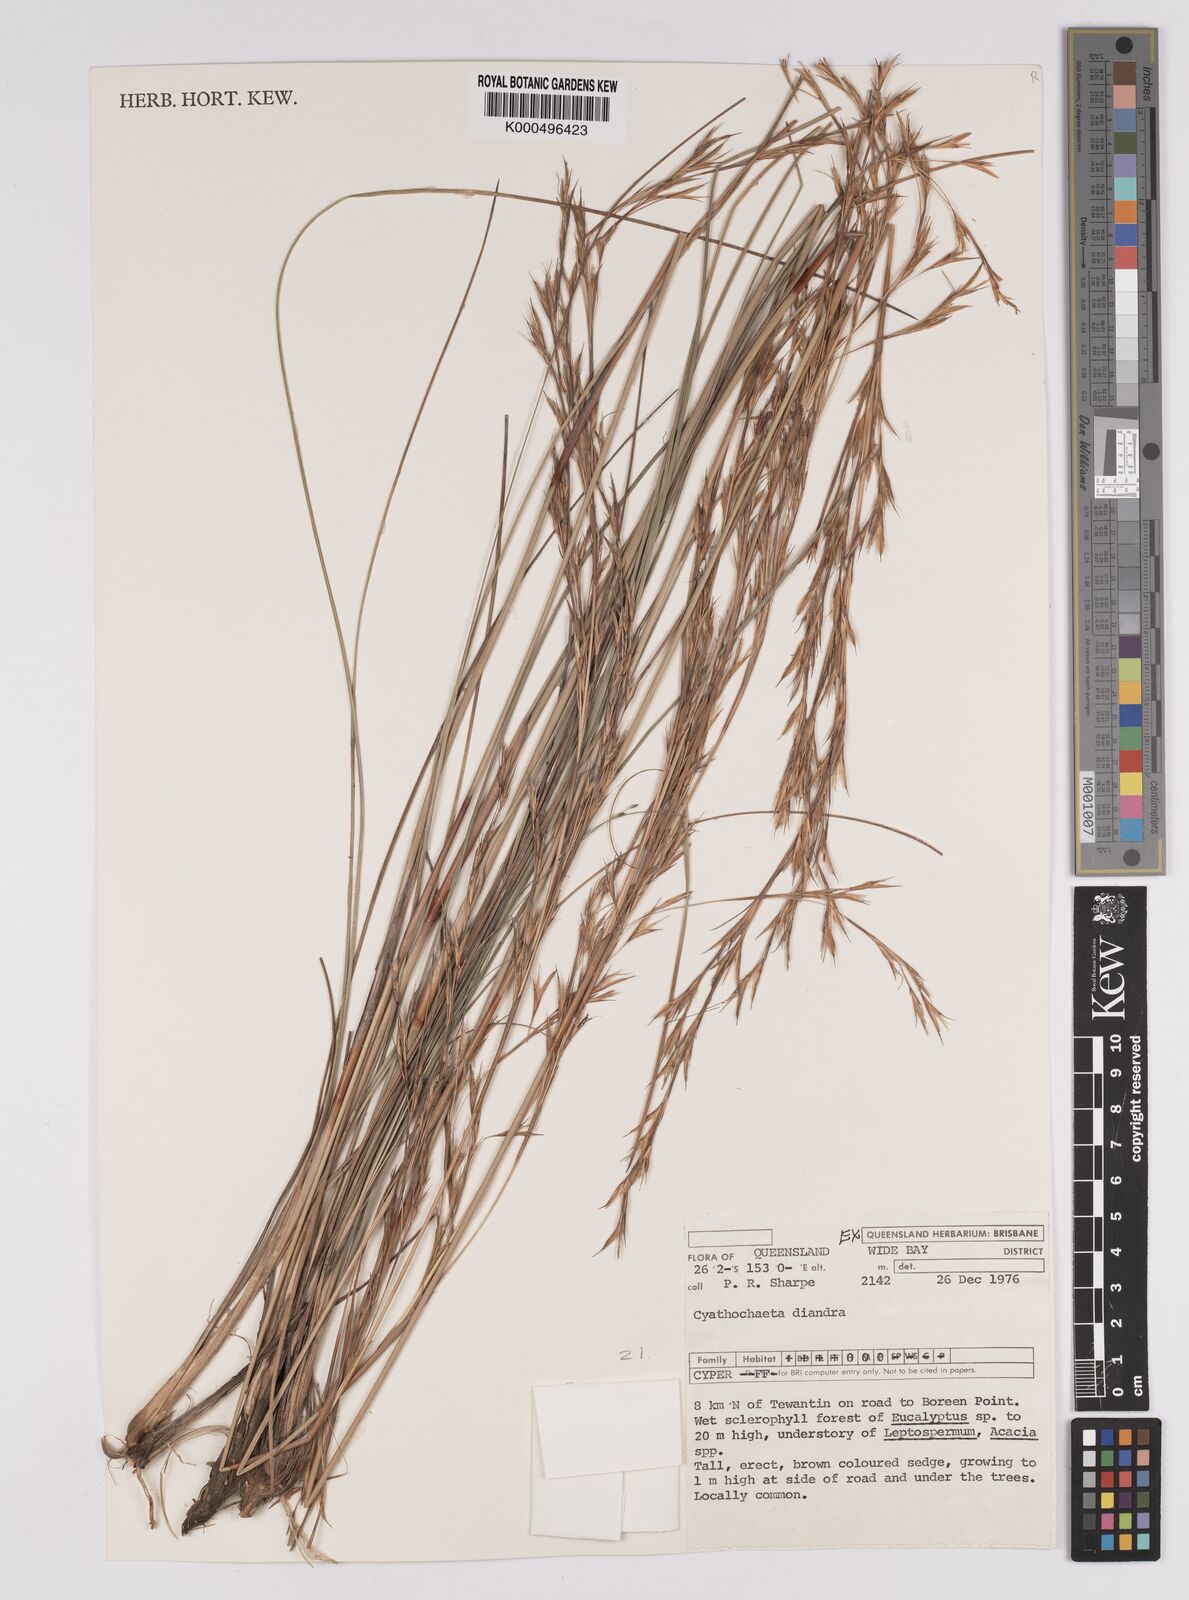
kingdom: Plantae
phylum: Tracheophyta
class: Liliopsida
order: Poales
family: Cyperaceae
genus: Cyathochaeta
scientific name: Cyathochaeta diandra
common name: Sheath rush
